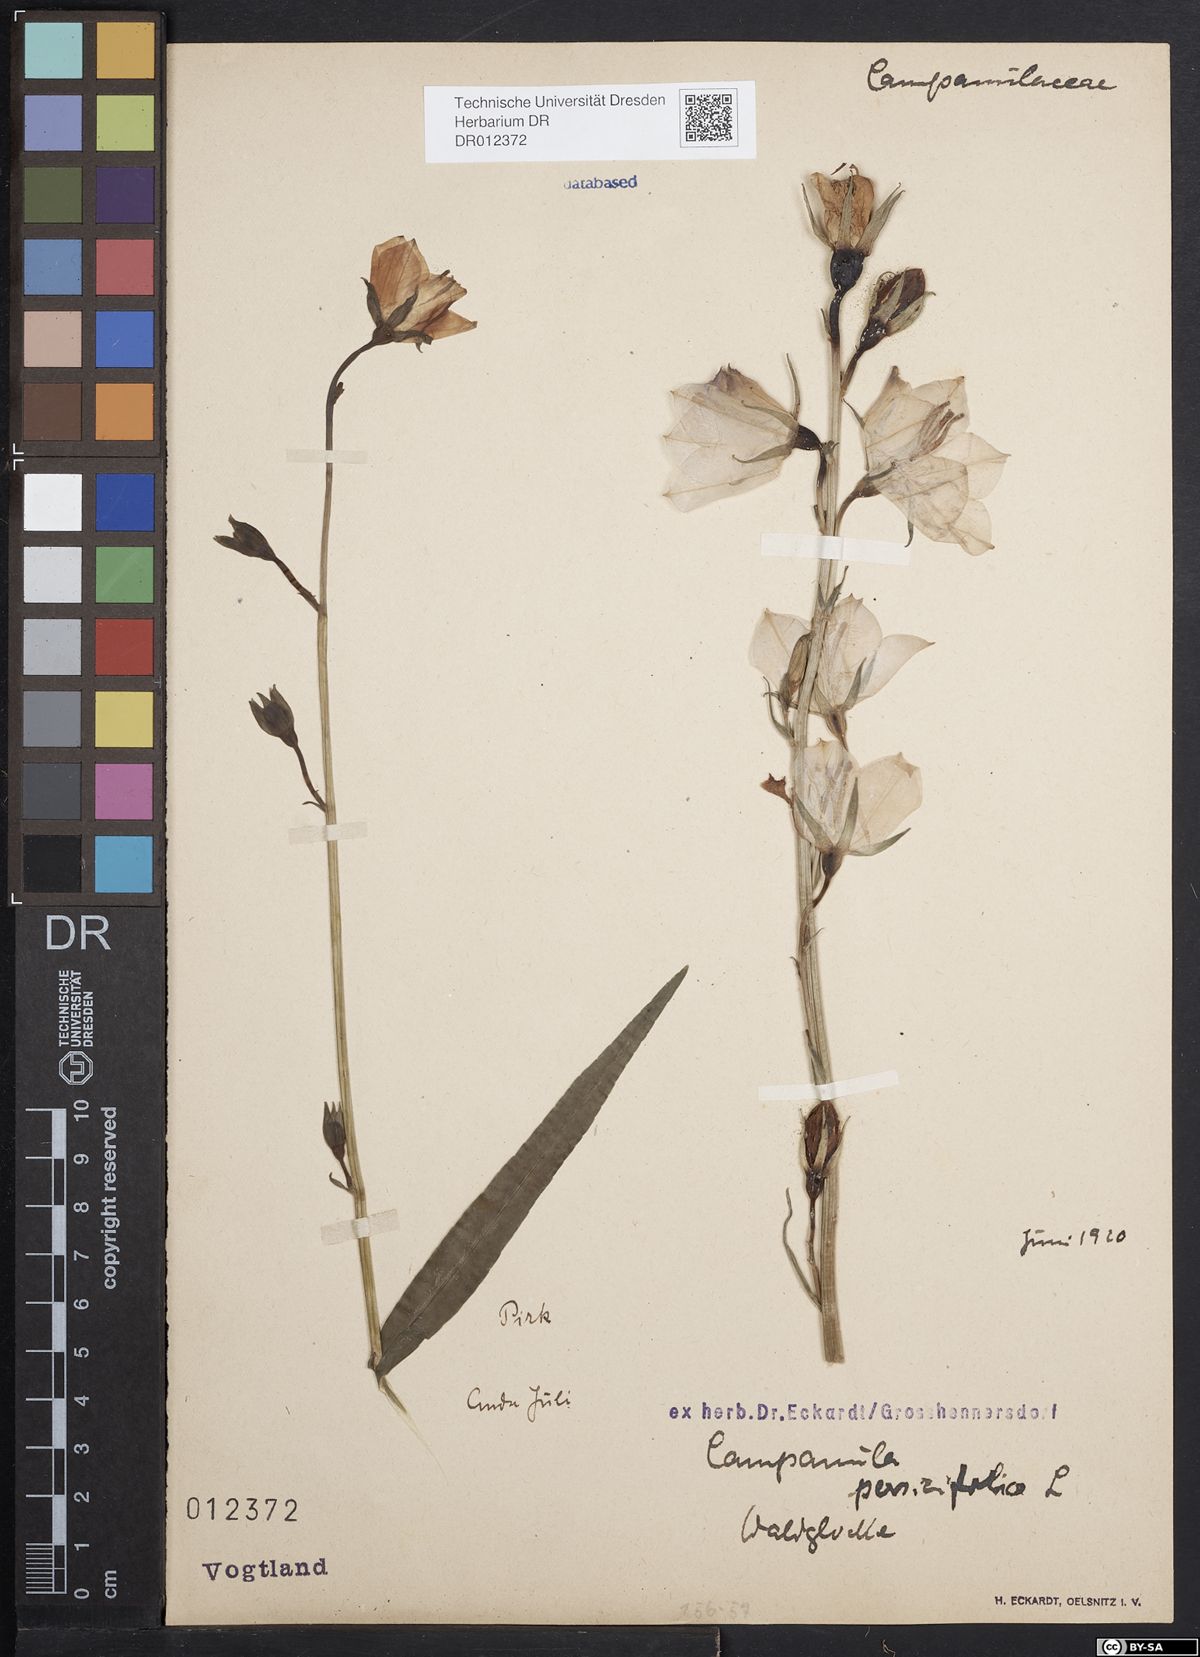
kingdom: Plantae
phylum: Tracheophyta
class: Magnoliopsida
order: Asterales
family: Campanulaceae
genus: Campanula
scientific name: Campanula persicifolia
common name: Peach-leaved bellflower
